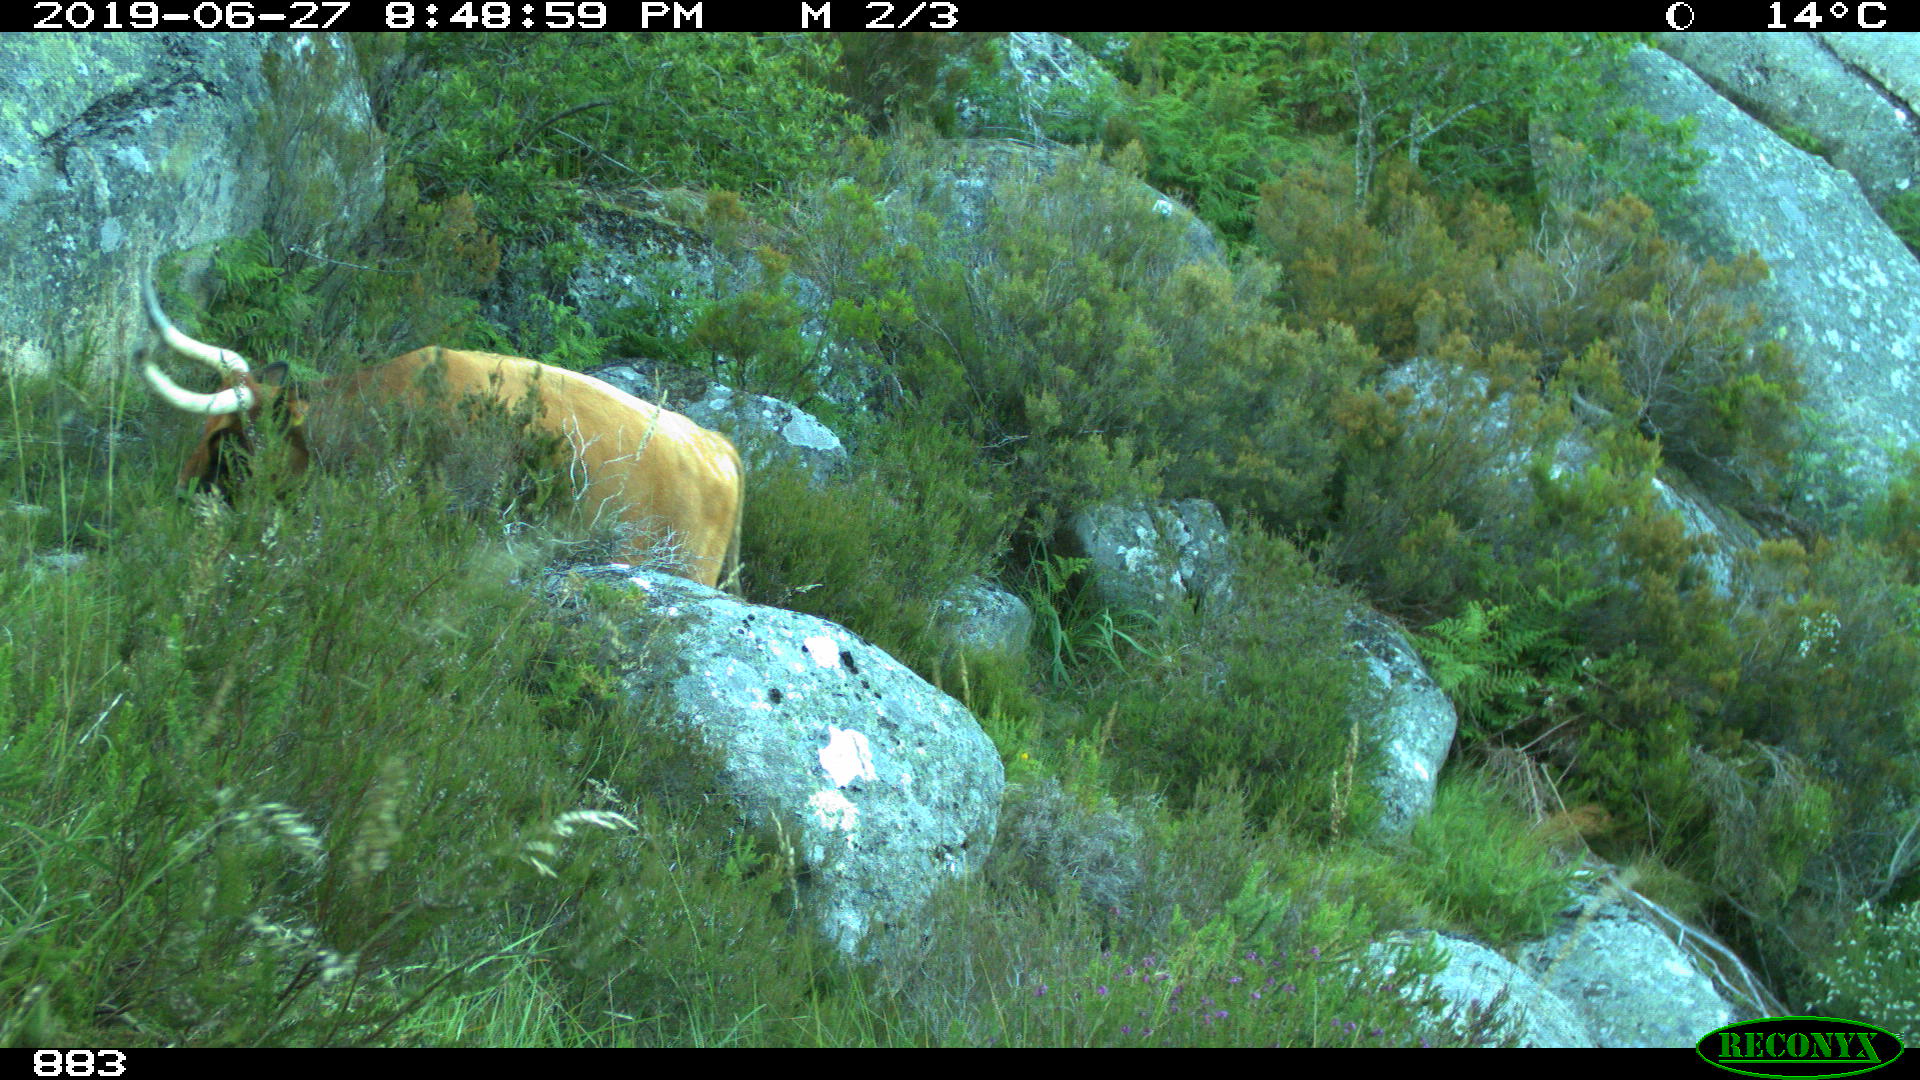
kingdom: Animalia
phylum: Chordata
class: Mammalia
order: Artiodactyla
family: Bovidae
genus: Bos
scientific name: Bos taurus
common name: Domesticated cattle
